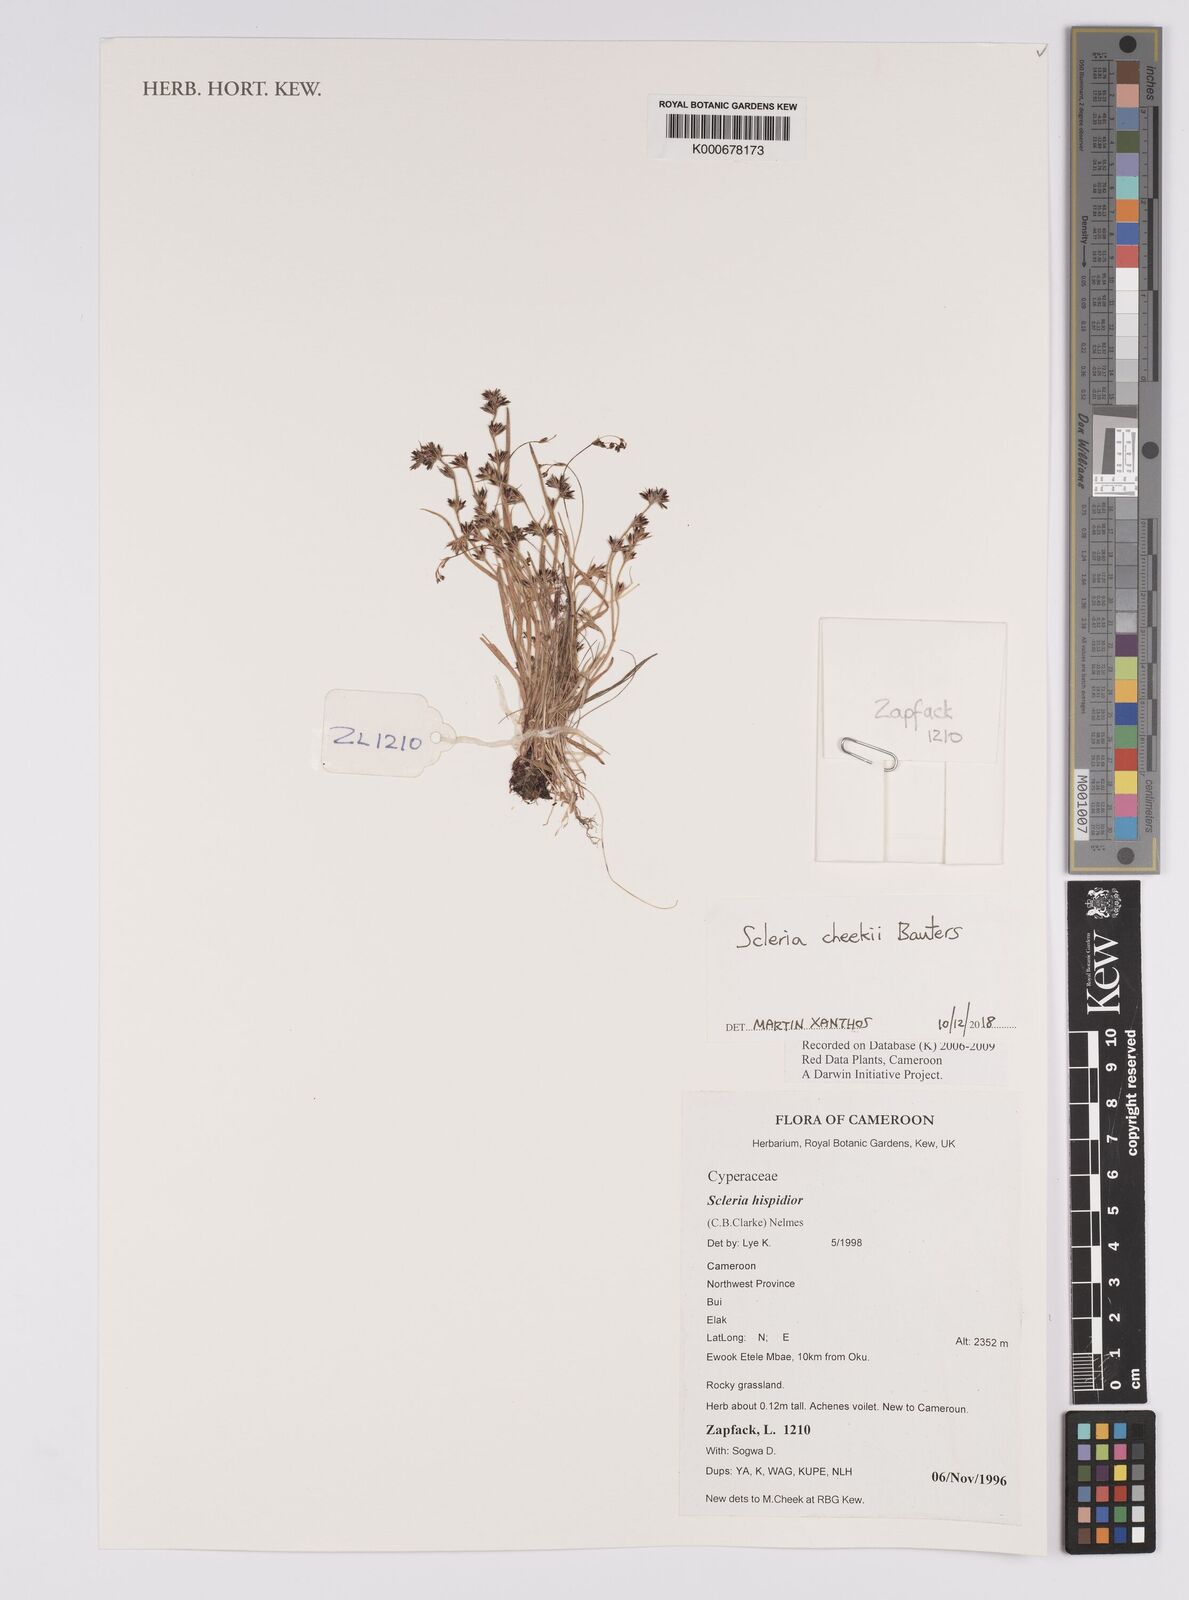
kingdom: Plantae
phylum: Tracheophyta
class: Liliopsida
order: Poales
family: Cyperaceae
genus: Scleria
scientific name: Scleria hispidior
